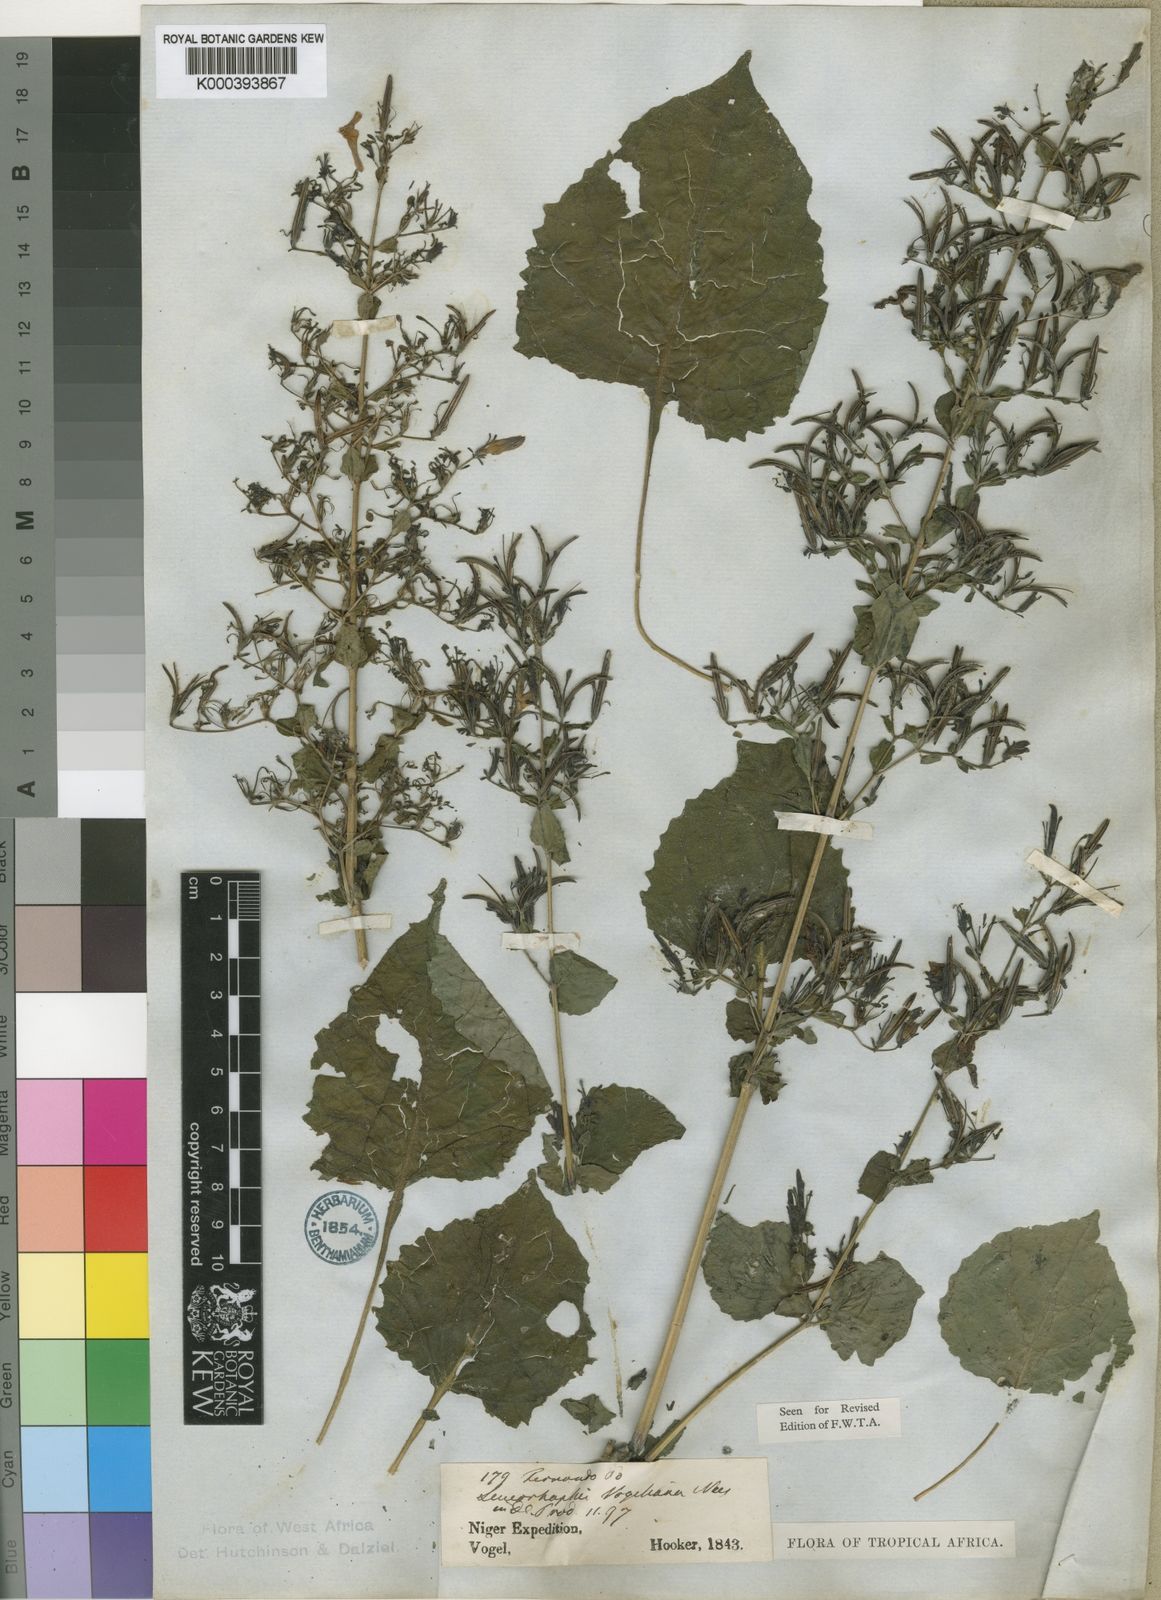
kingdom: Plantae
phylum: Tracheophyta
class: Magnoliopsida
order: Lamiales
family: Acanthaceae
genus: Brillantaisia
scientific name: Brillantaisia vogeliana
